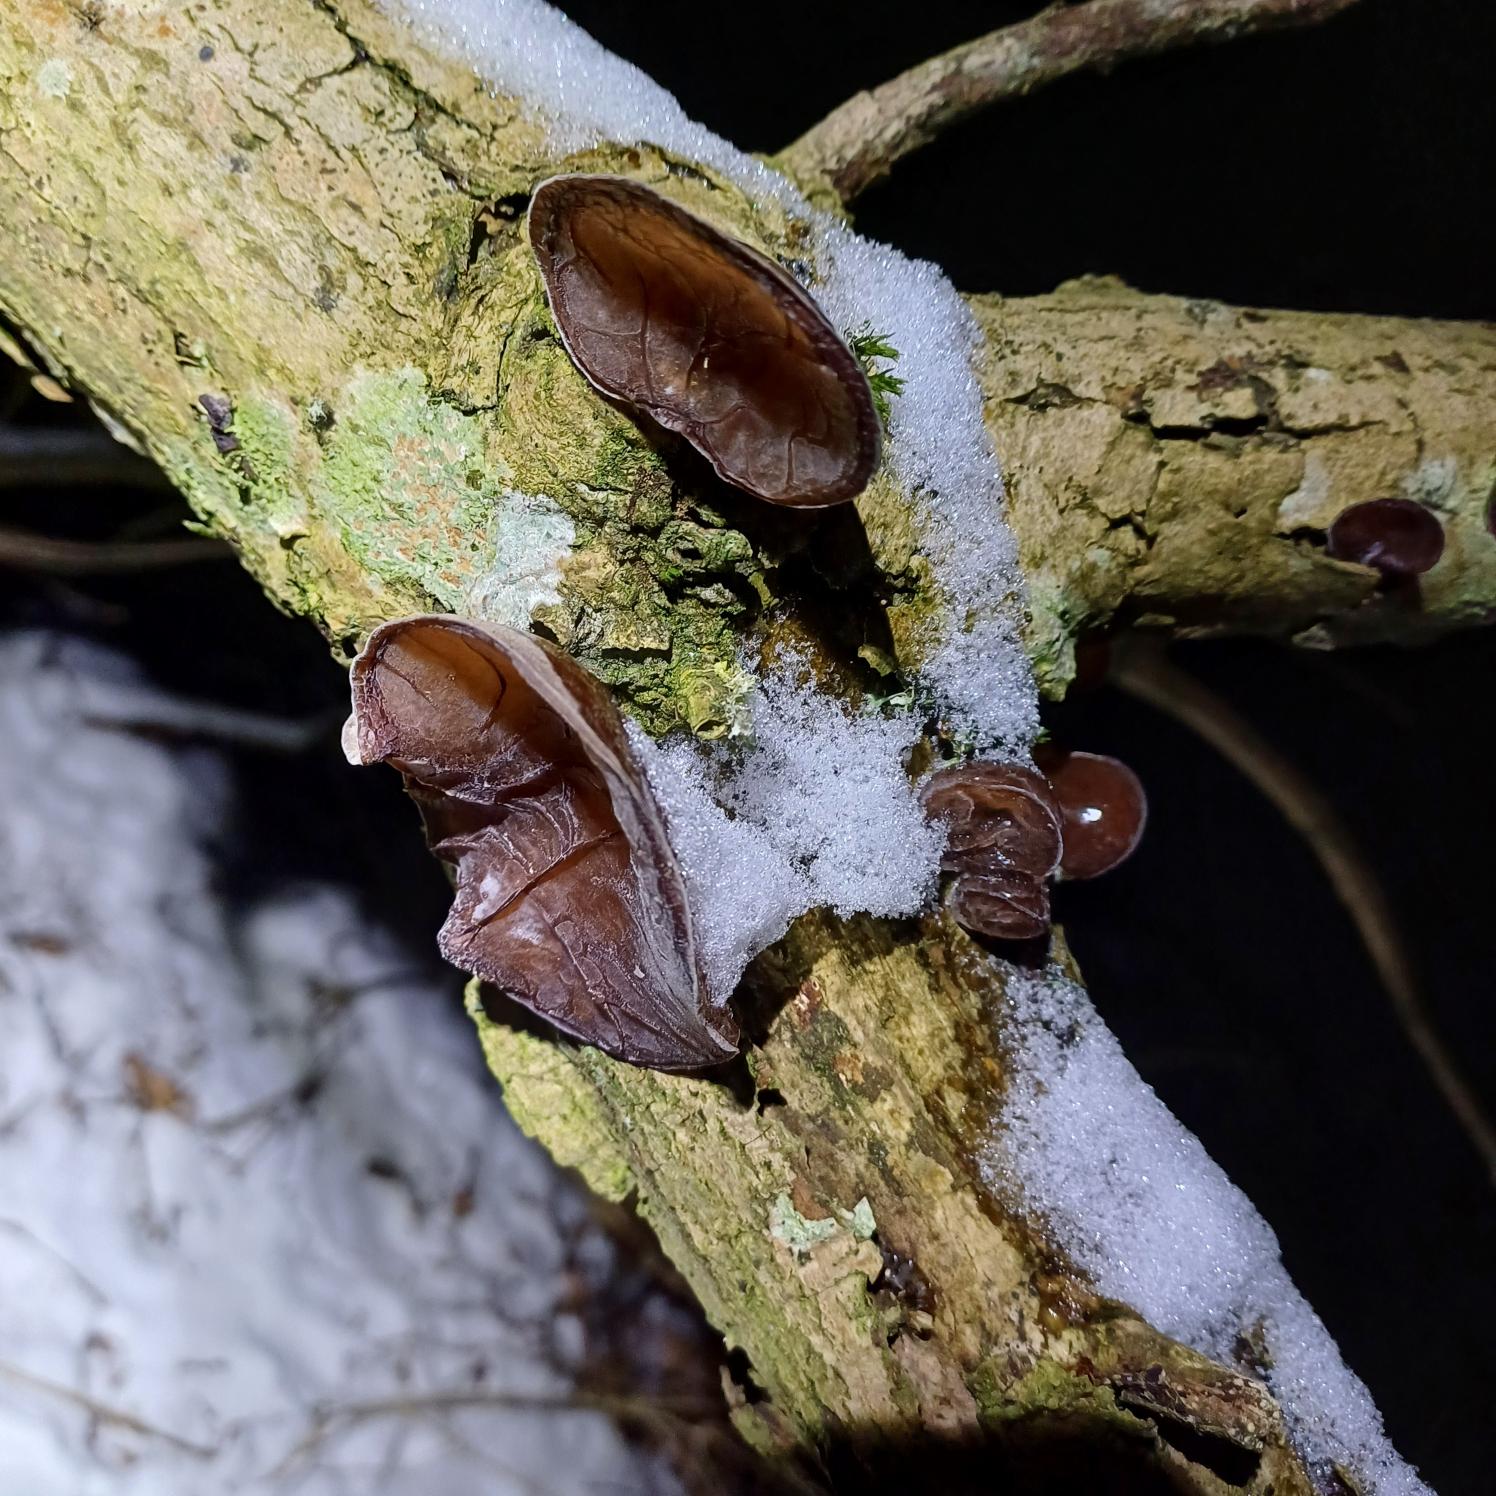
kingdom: Fungi
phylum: Basidiomycota
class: Agaricomycetes
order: Auriculariales
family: Auriculariaceae
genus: Auricularia
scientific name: Auricularia auricula-judae
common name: Almindelig judasøre
